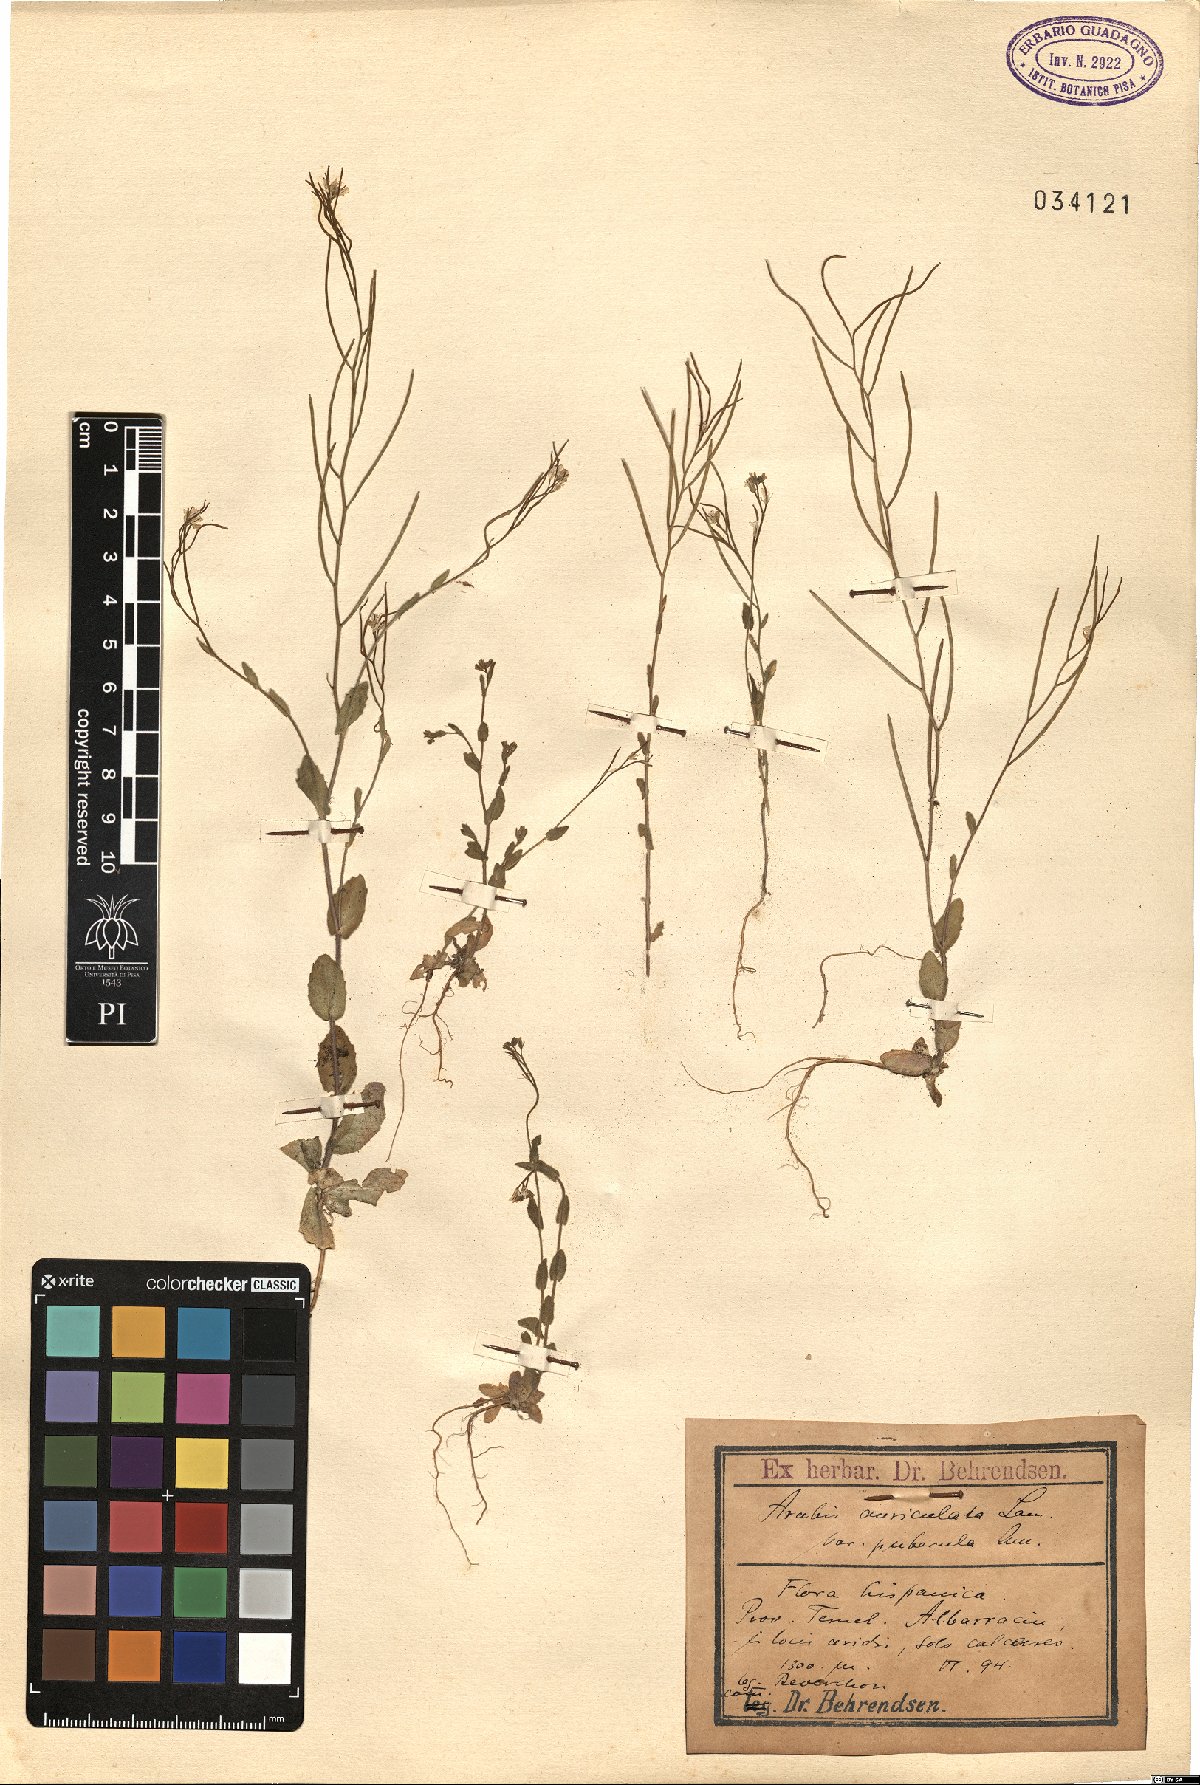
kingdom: Plantae
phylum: Tracheophyta
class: Magnoliopsida
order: Brassicales
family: Brassicaceae
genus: Arabis
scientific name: Arabis auriculata
